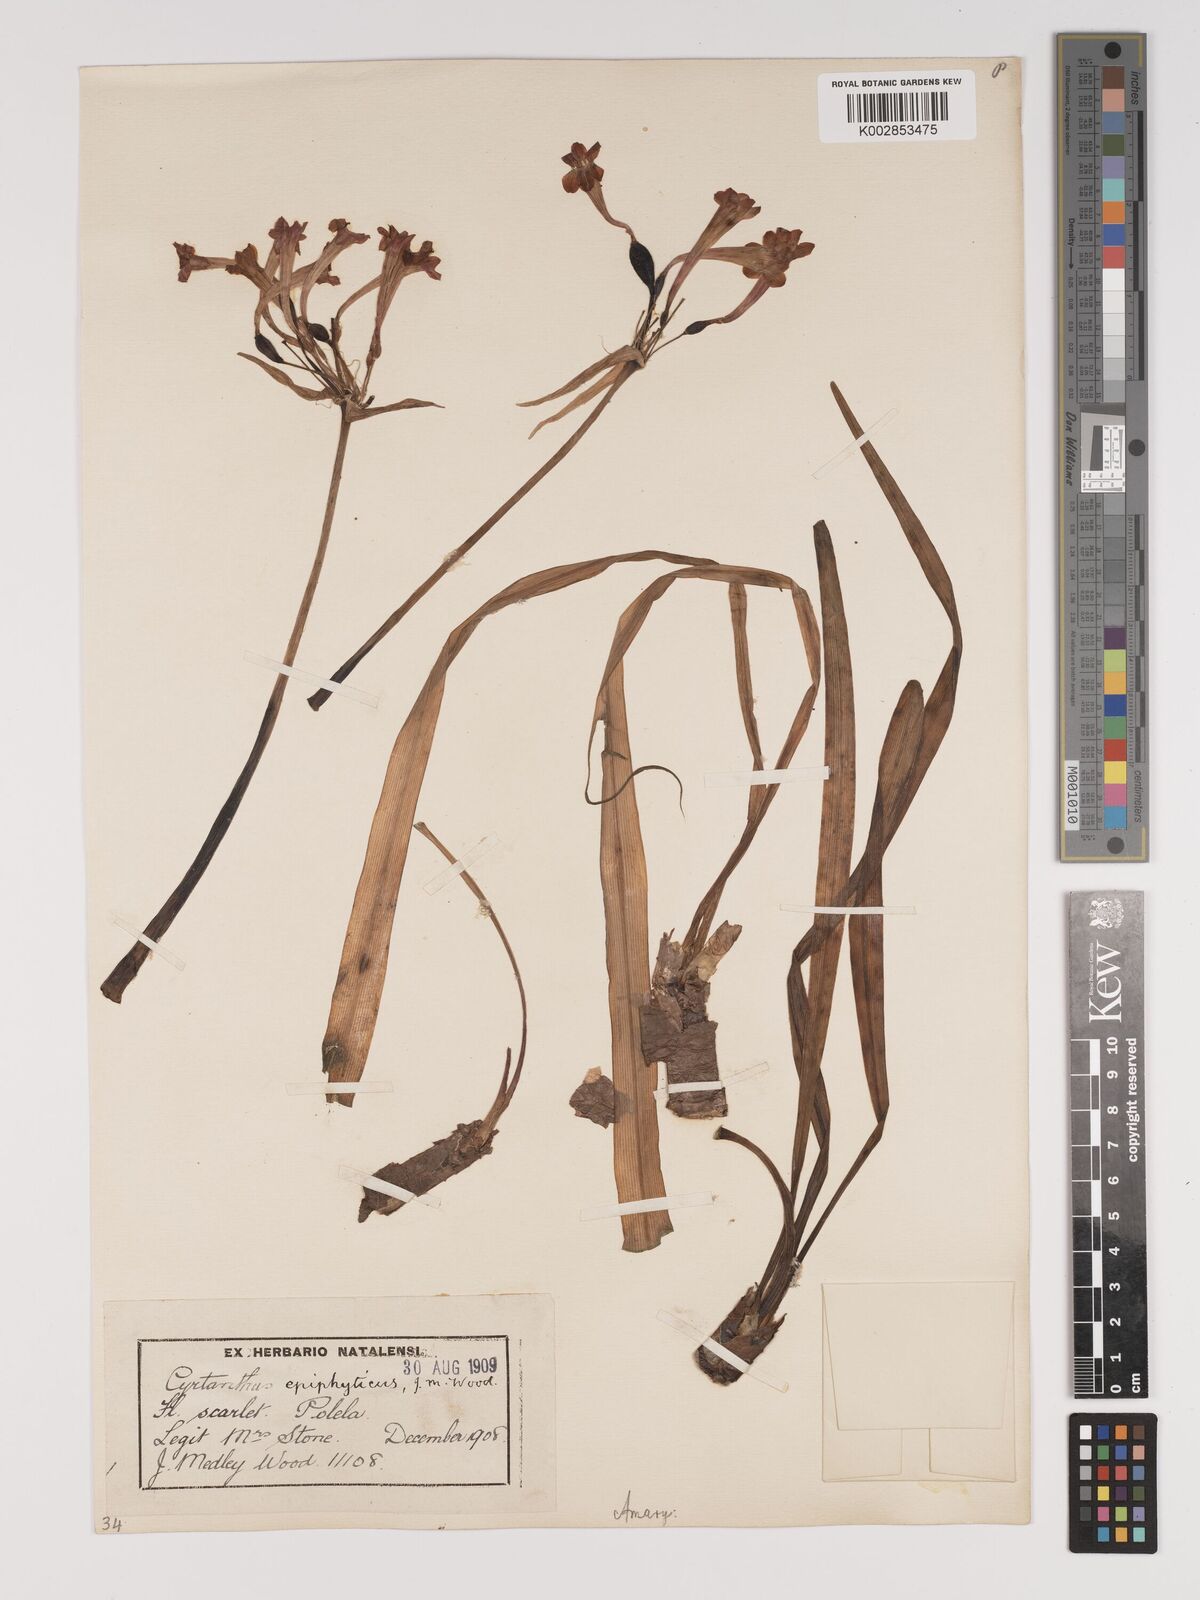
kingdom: Plantae
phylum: Tracheophyta
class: Liliopsida
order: Asparagales
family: Amaryllidaceae
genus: Cyrtanthus
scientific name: Cyrtanthus epiphyticus
